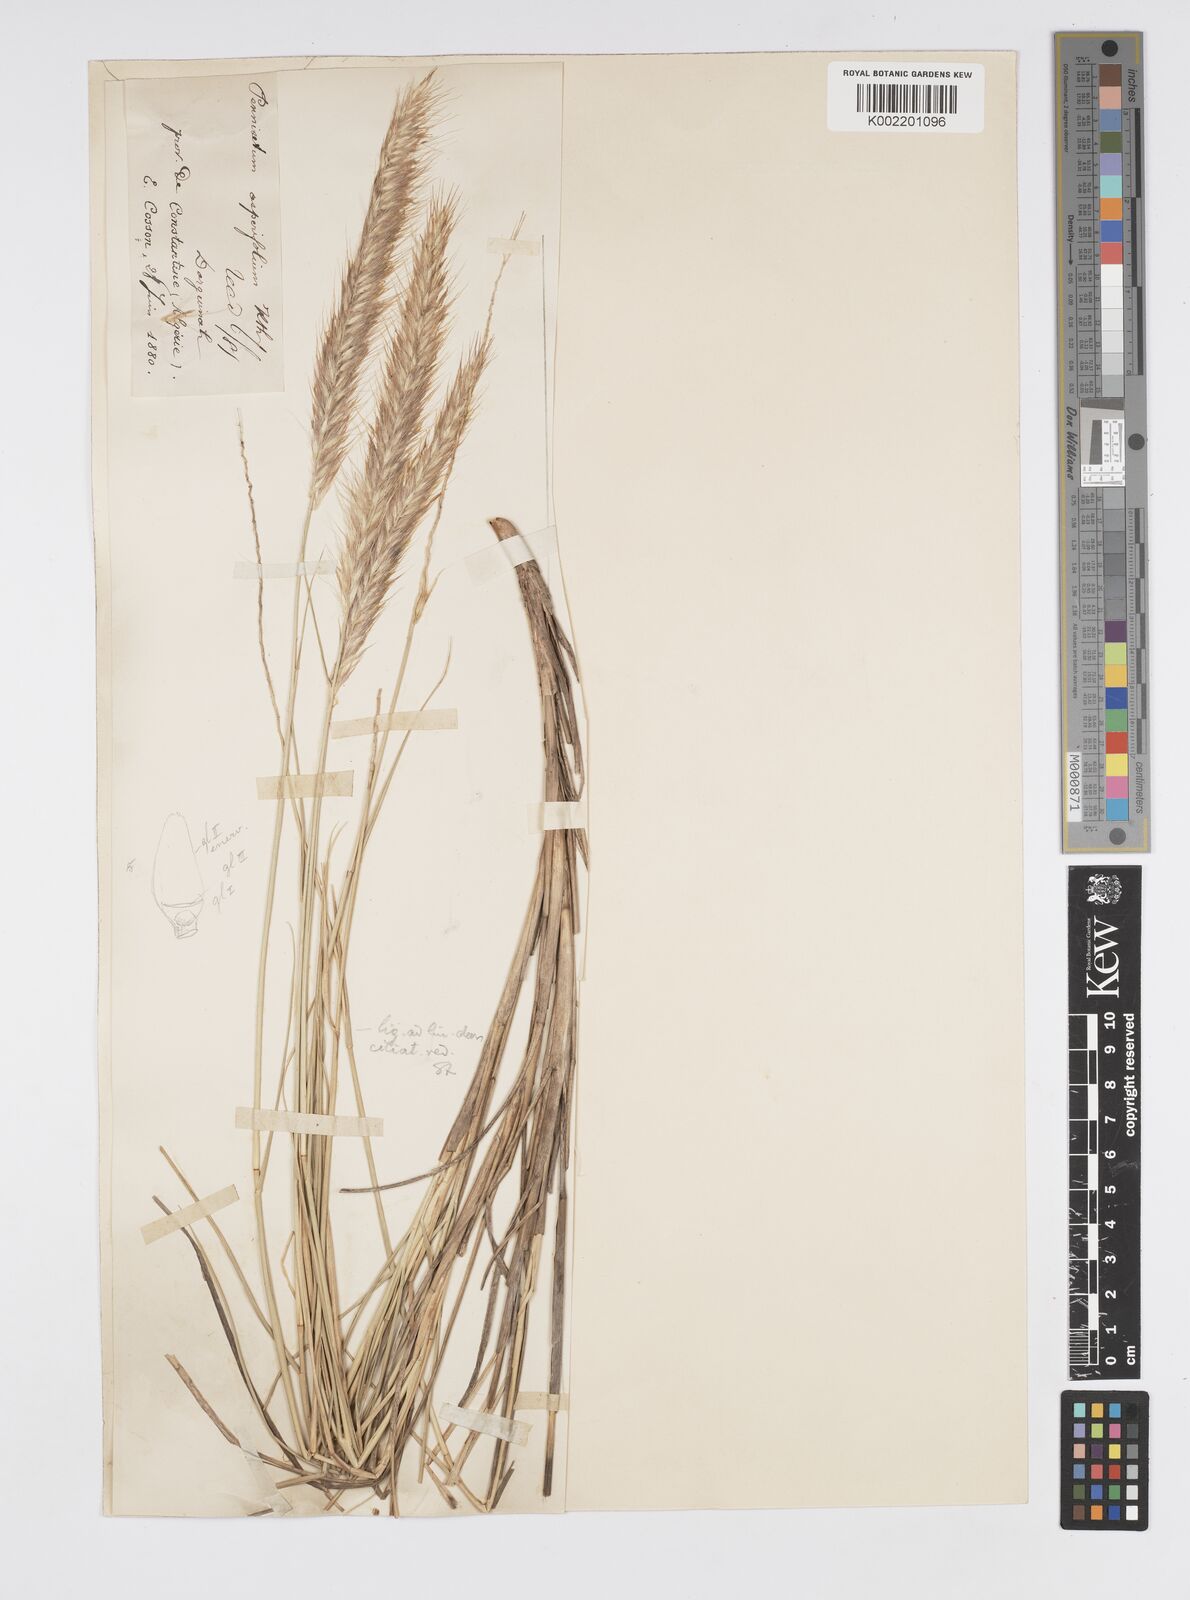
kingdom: Plantae
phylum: Tracheophyta
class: Liliopsida
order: Poales
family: Poaceae
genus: Cenchrus
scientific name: Cenchrus setaceus
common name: Crimson fountaingrass
